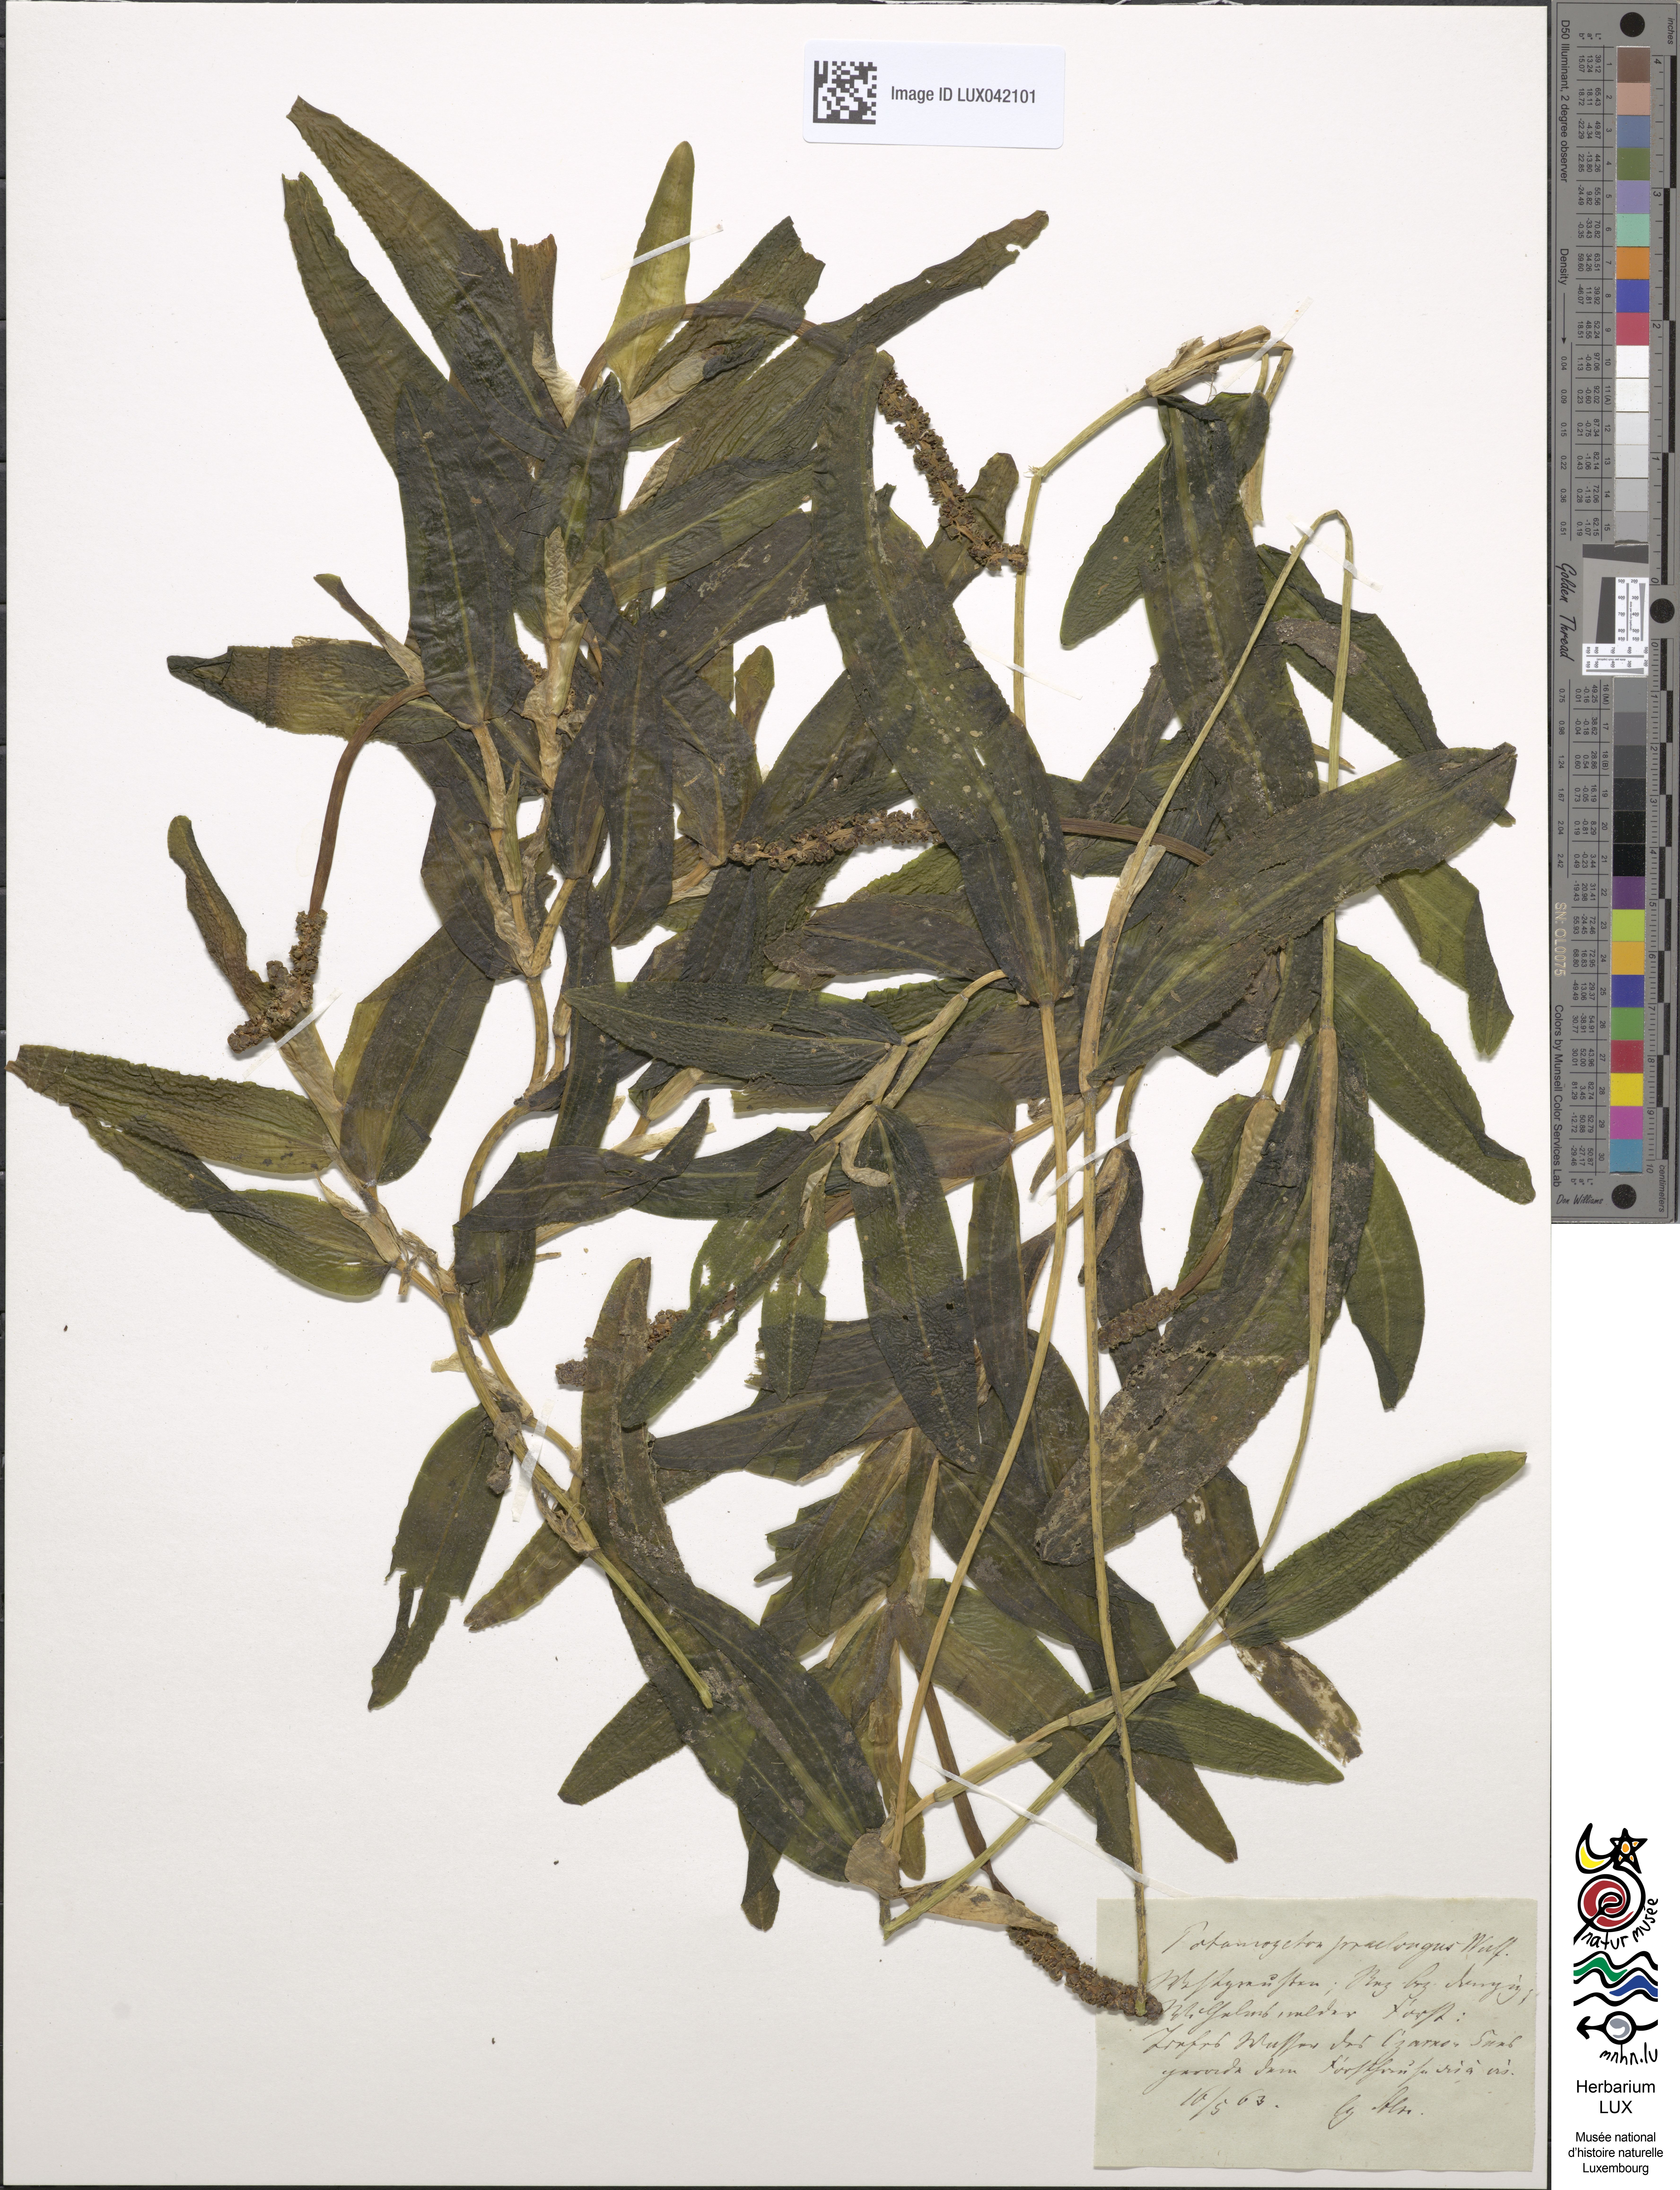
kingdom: Plantae
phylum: Tracheophyta
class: Liliopsida
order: Alismatales
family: Potamogetonaceae
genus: Potamogeton
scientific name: Potamogeton praelongus
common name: Long-stalked pondweed
